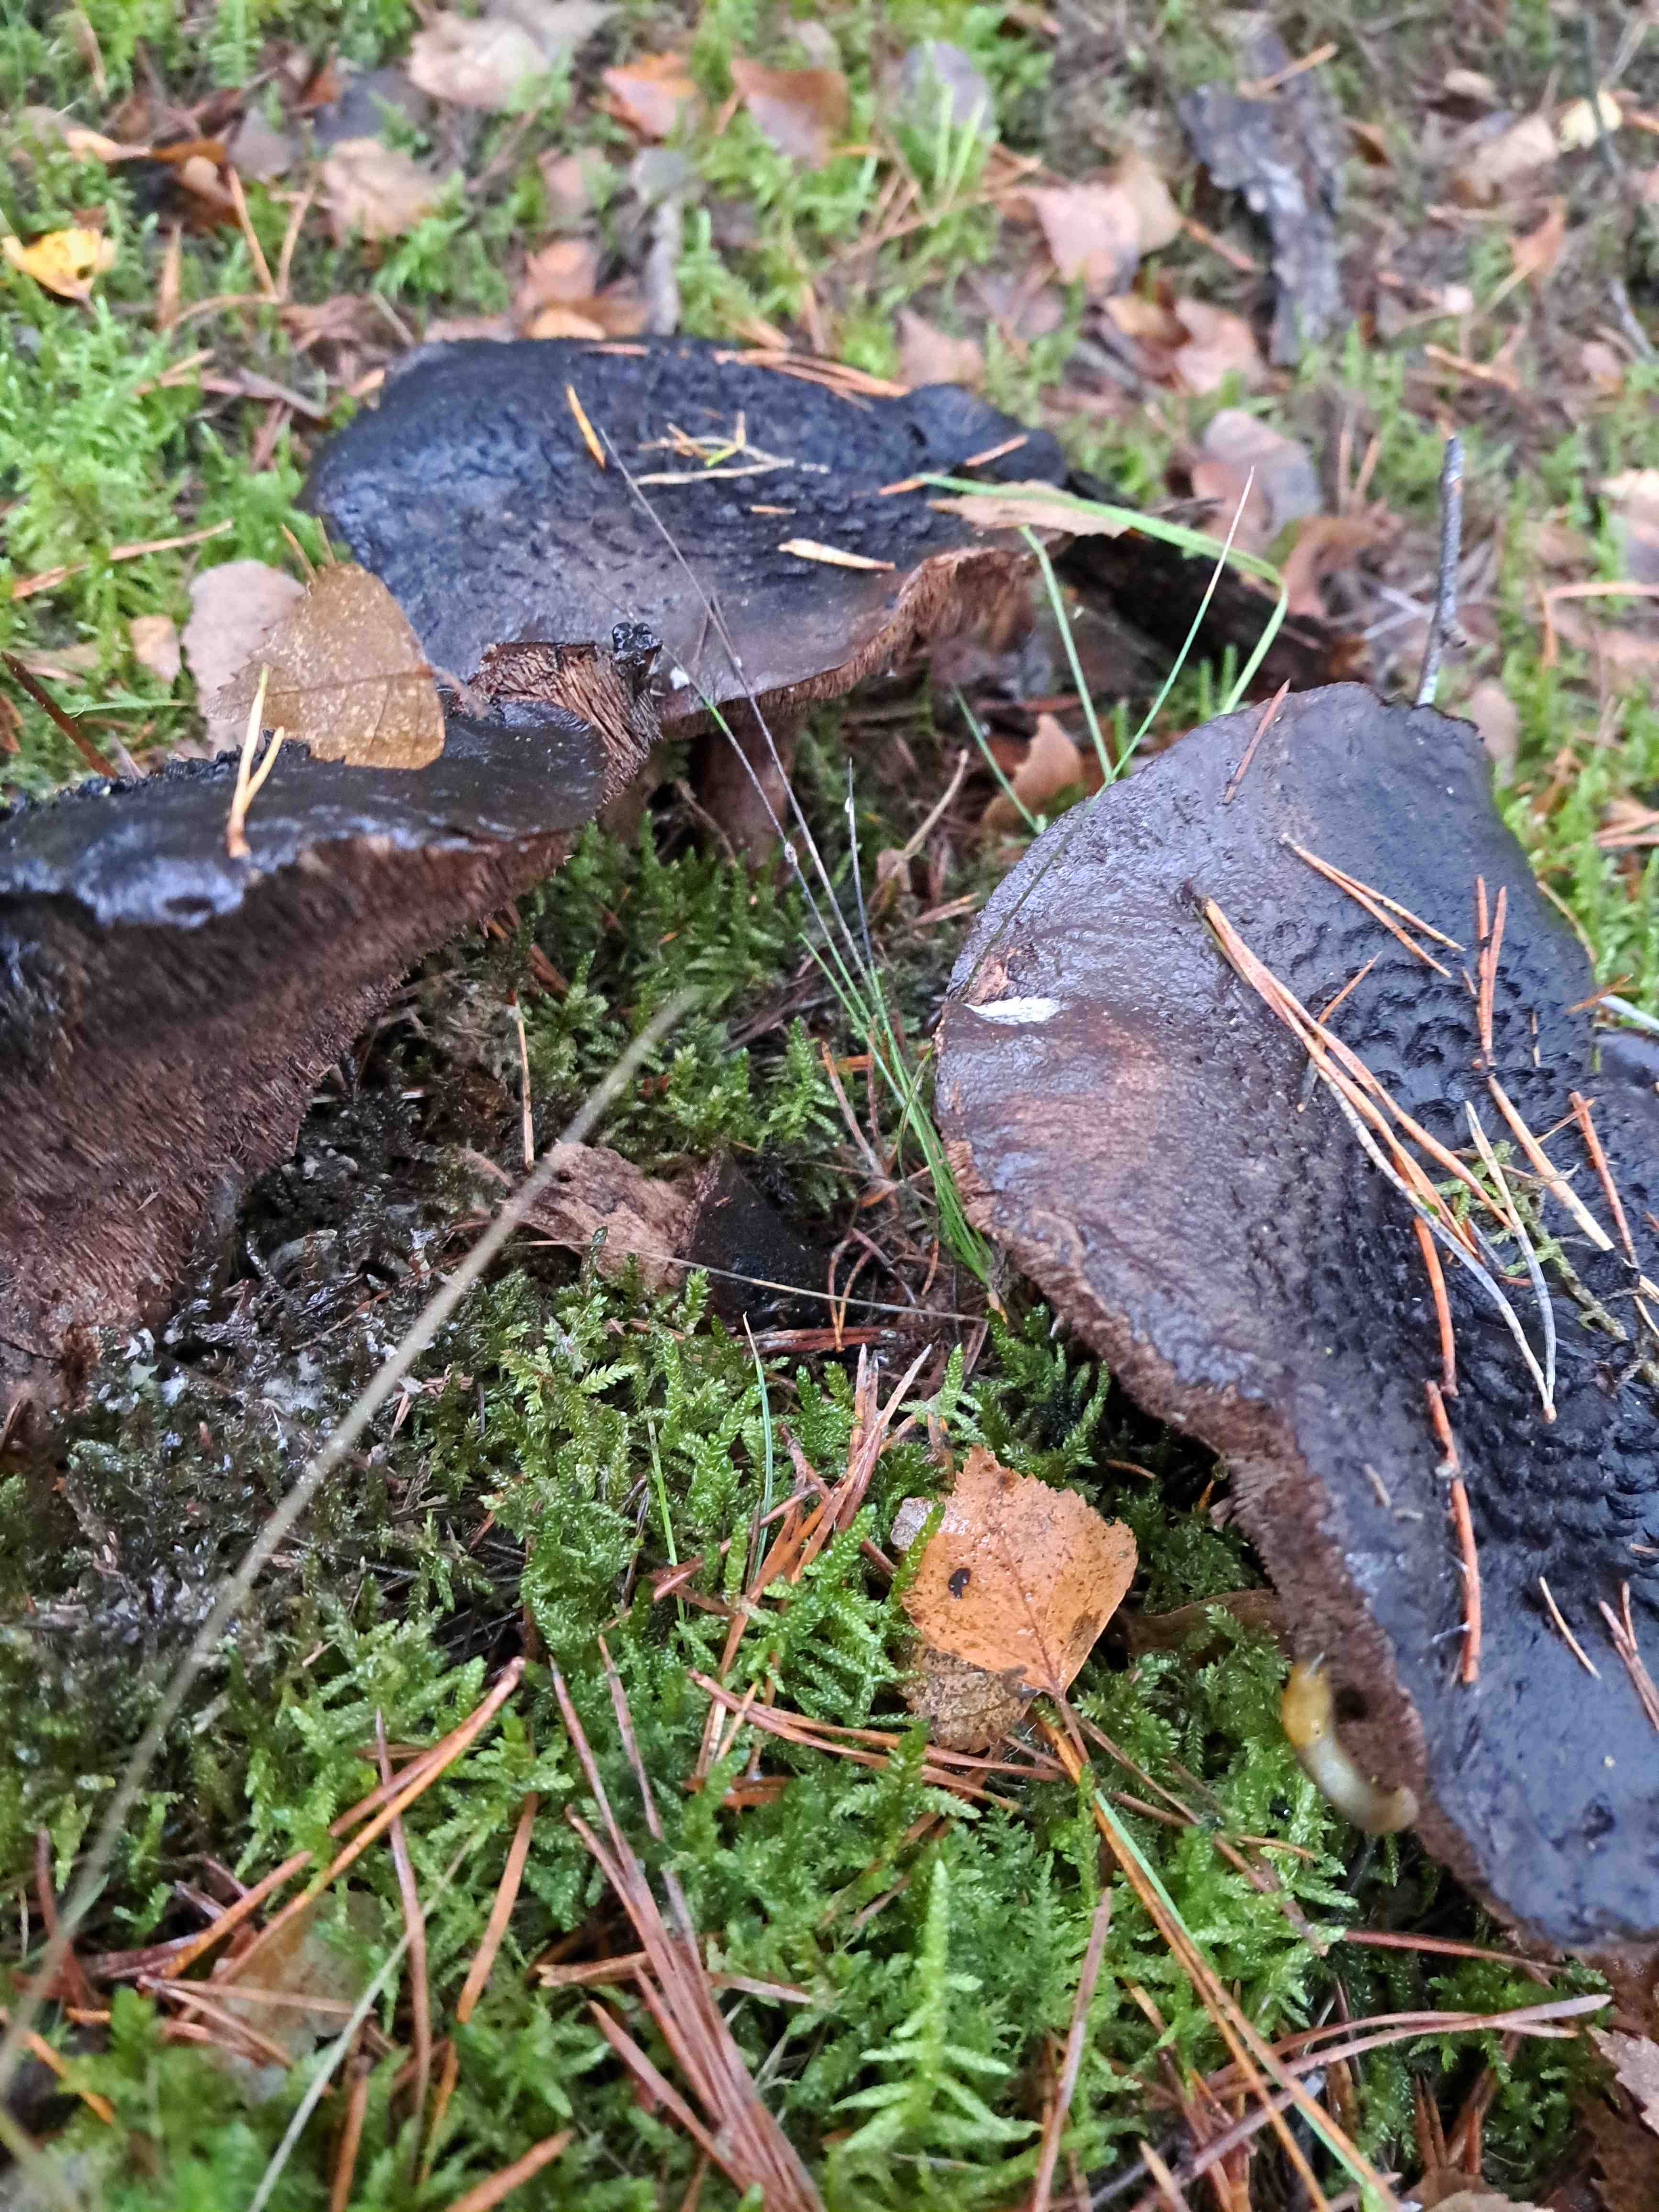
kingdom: Fungi
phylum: Basidiomycota
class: Agaricomycetes
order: Thelephorales
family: Bankeraceae
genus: Sarcodon
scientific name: Sarcodon squamosus
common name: småskællet kødpigsvamp
